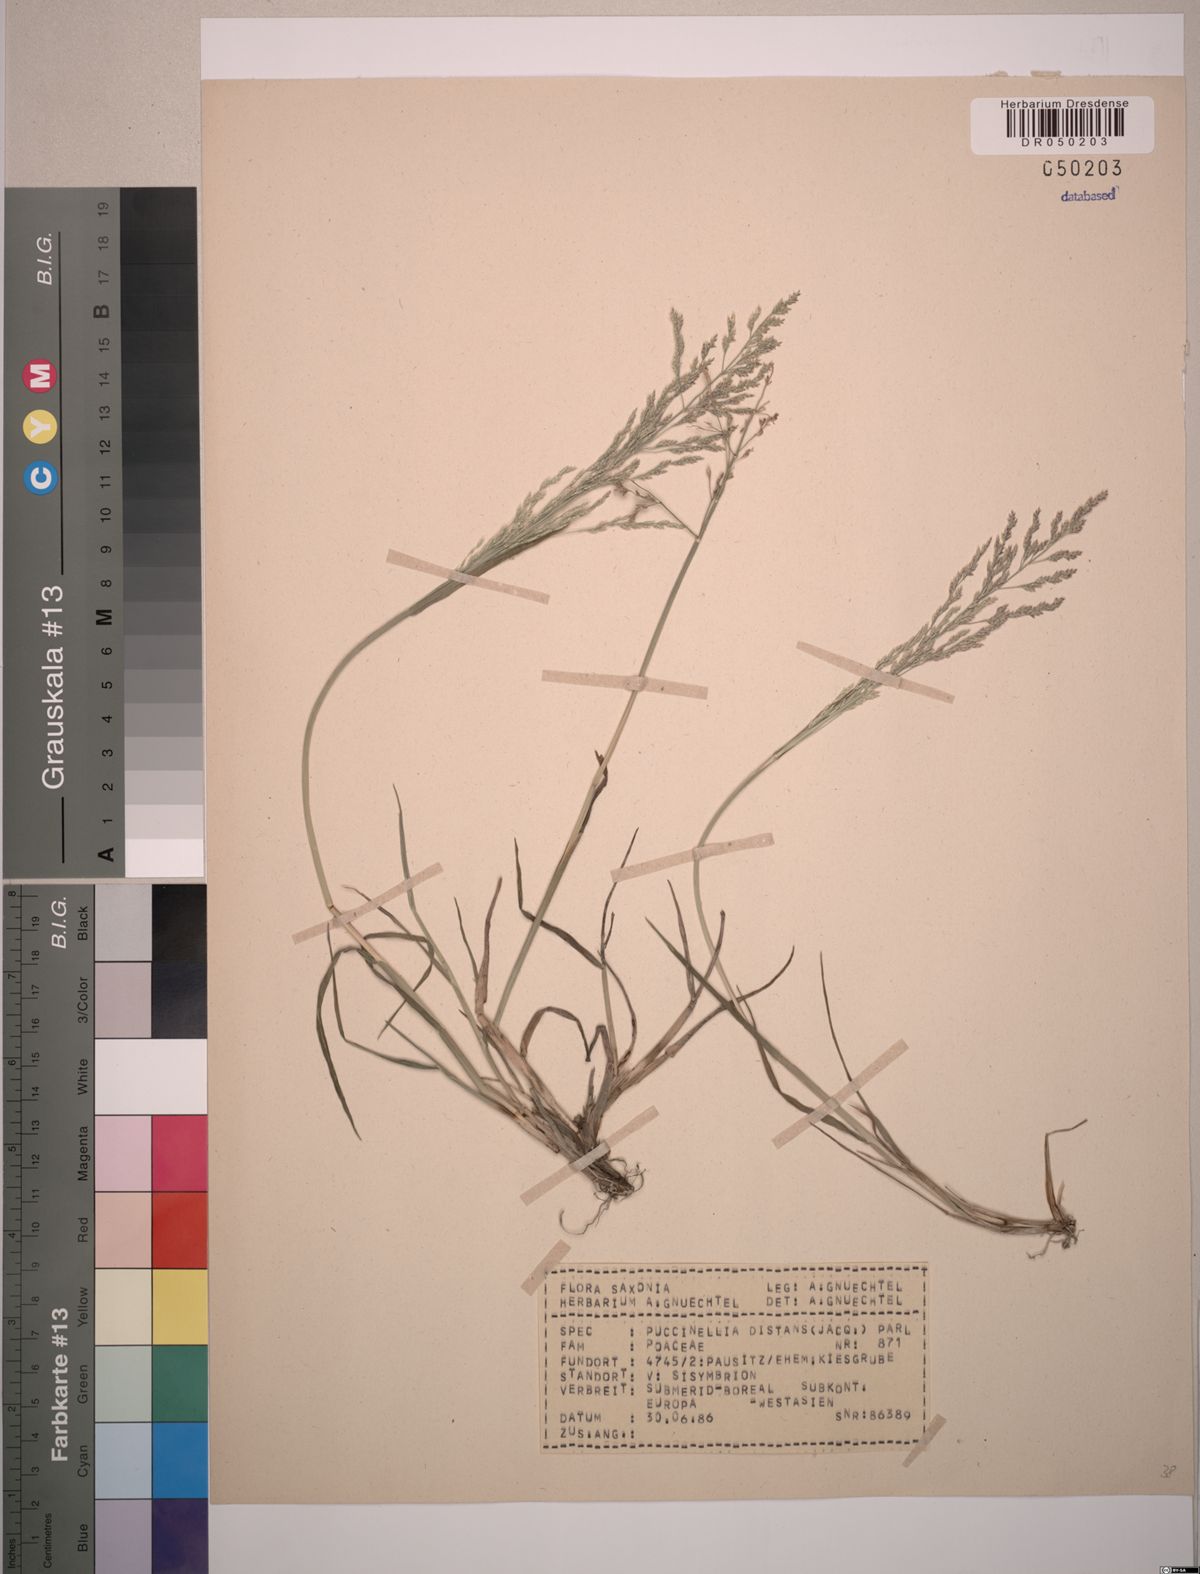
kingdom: Plantae
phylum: Tracheophyta
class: Liliopsida
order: Poales
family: Poaceae
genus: Puccinellia
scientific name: Puccinellia distans
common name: Weeping alkaligrass
